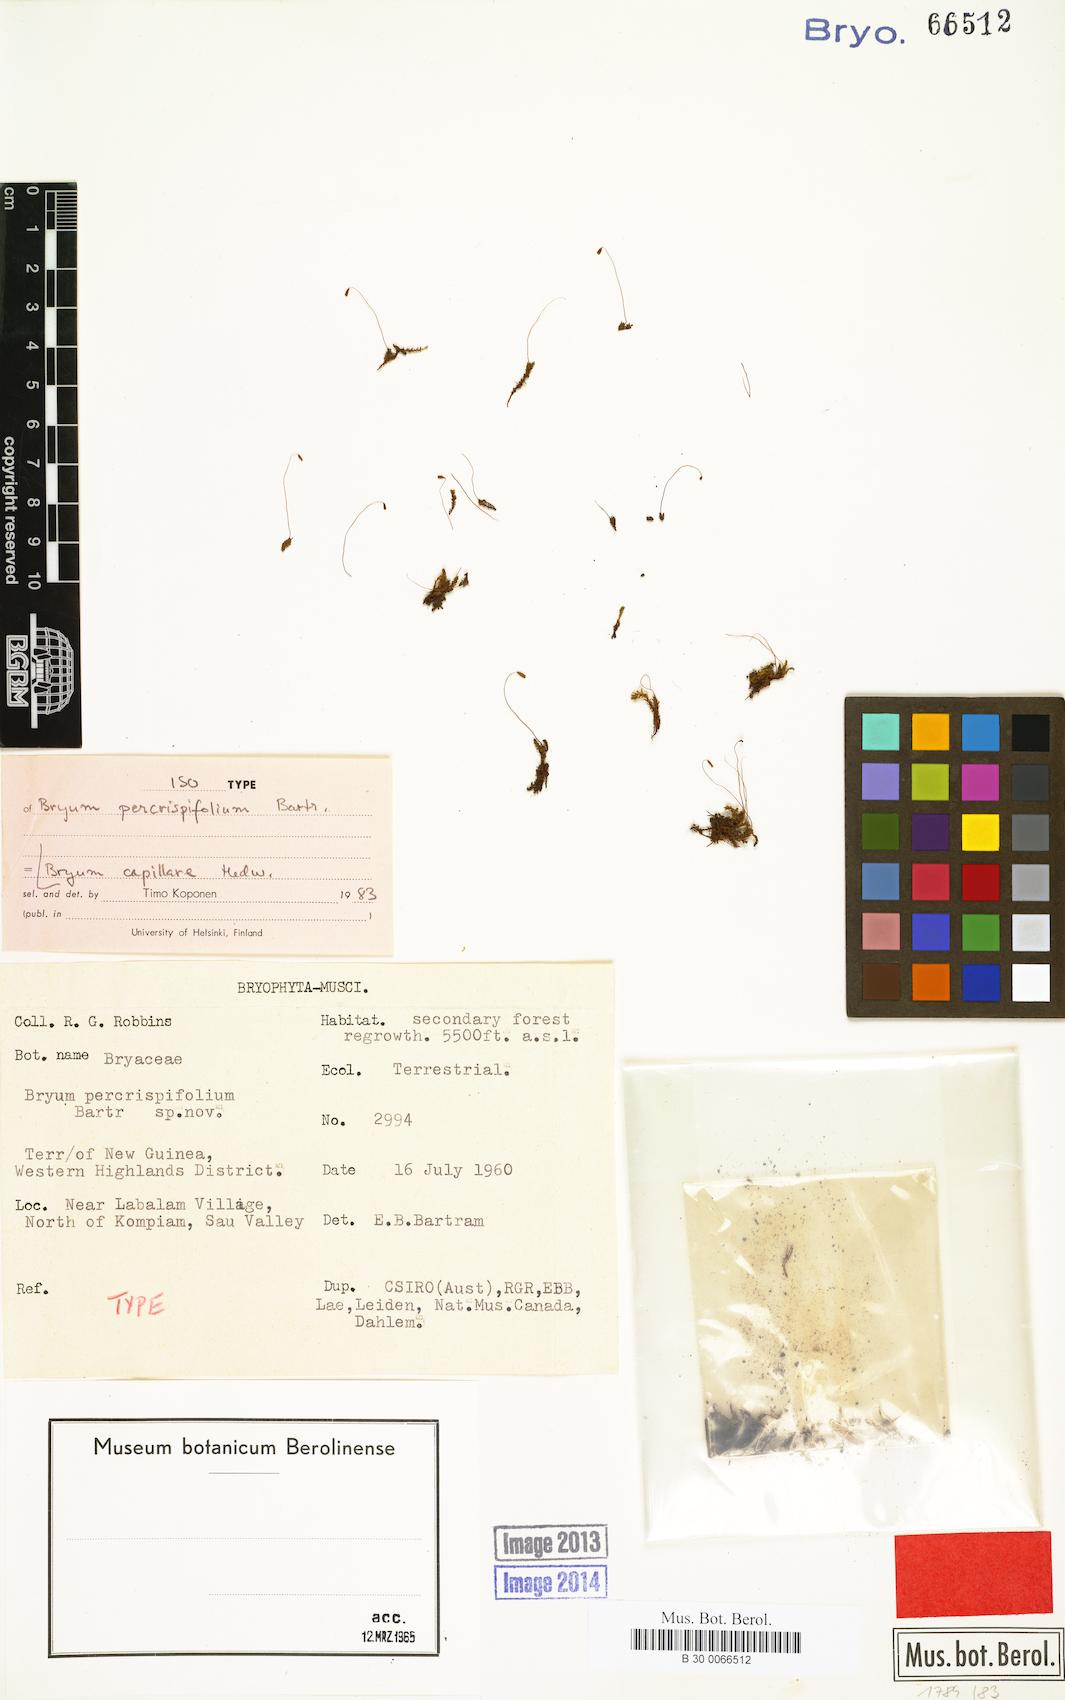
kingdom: Plantae
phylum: Bryophyta
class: Bryopsida
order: Bryales
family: Bryaceae
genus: Rosulabryum
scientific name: Rosulabryum capillare
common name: Capillary thread-moss
